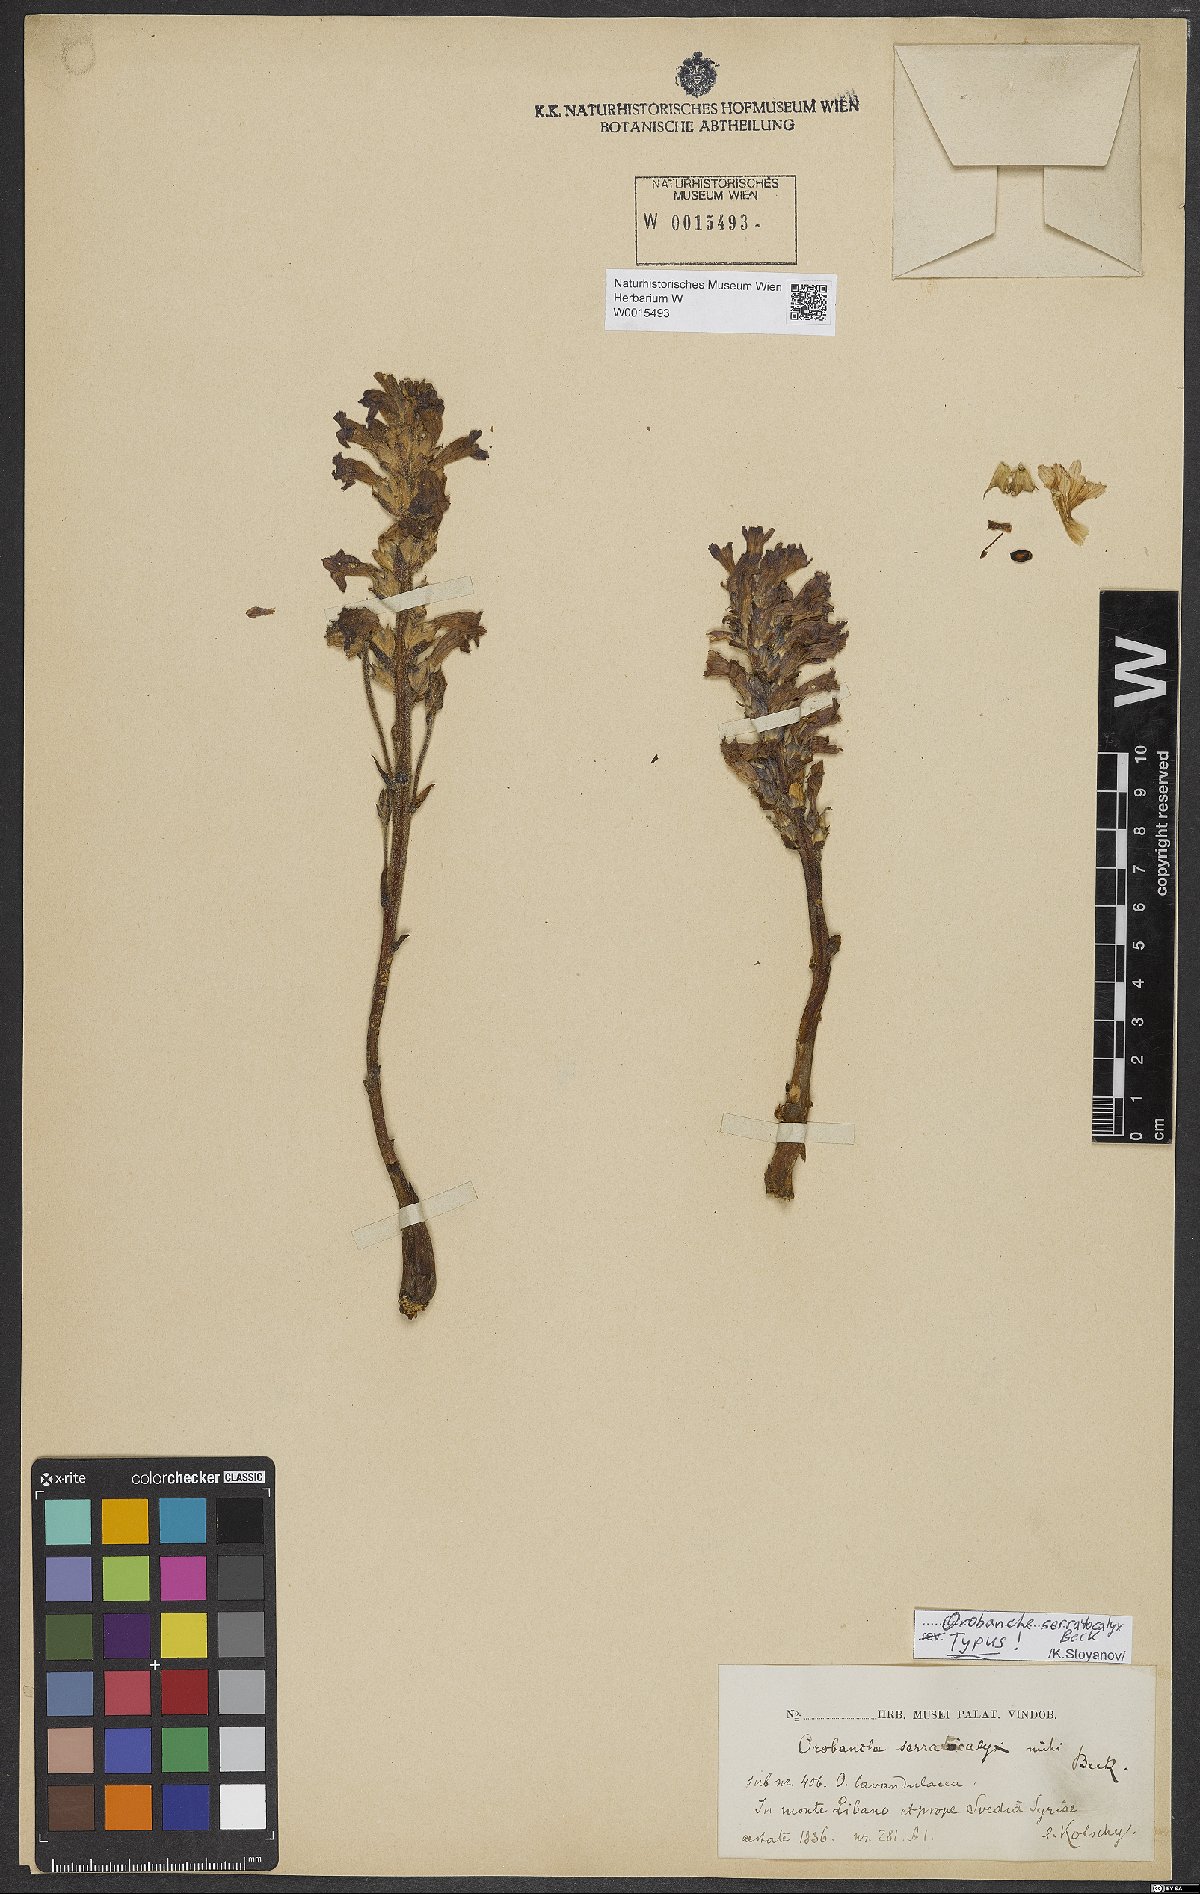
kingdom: Plantae
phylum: Tracheophyta
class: Magnoliopsida
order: Lamiales
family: Orobanchaceae
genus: Phelipanche
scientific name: Phelipanche serratocalyx
